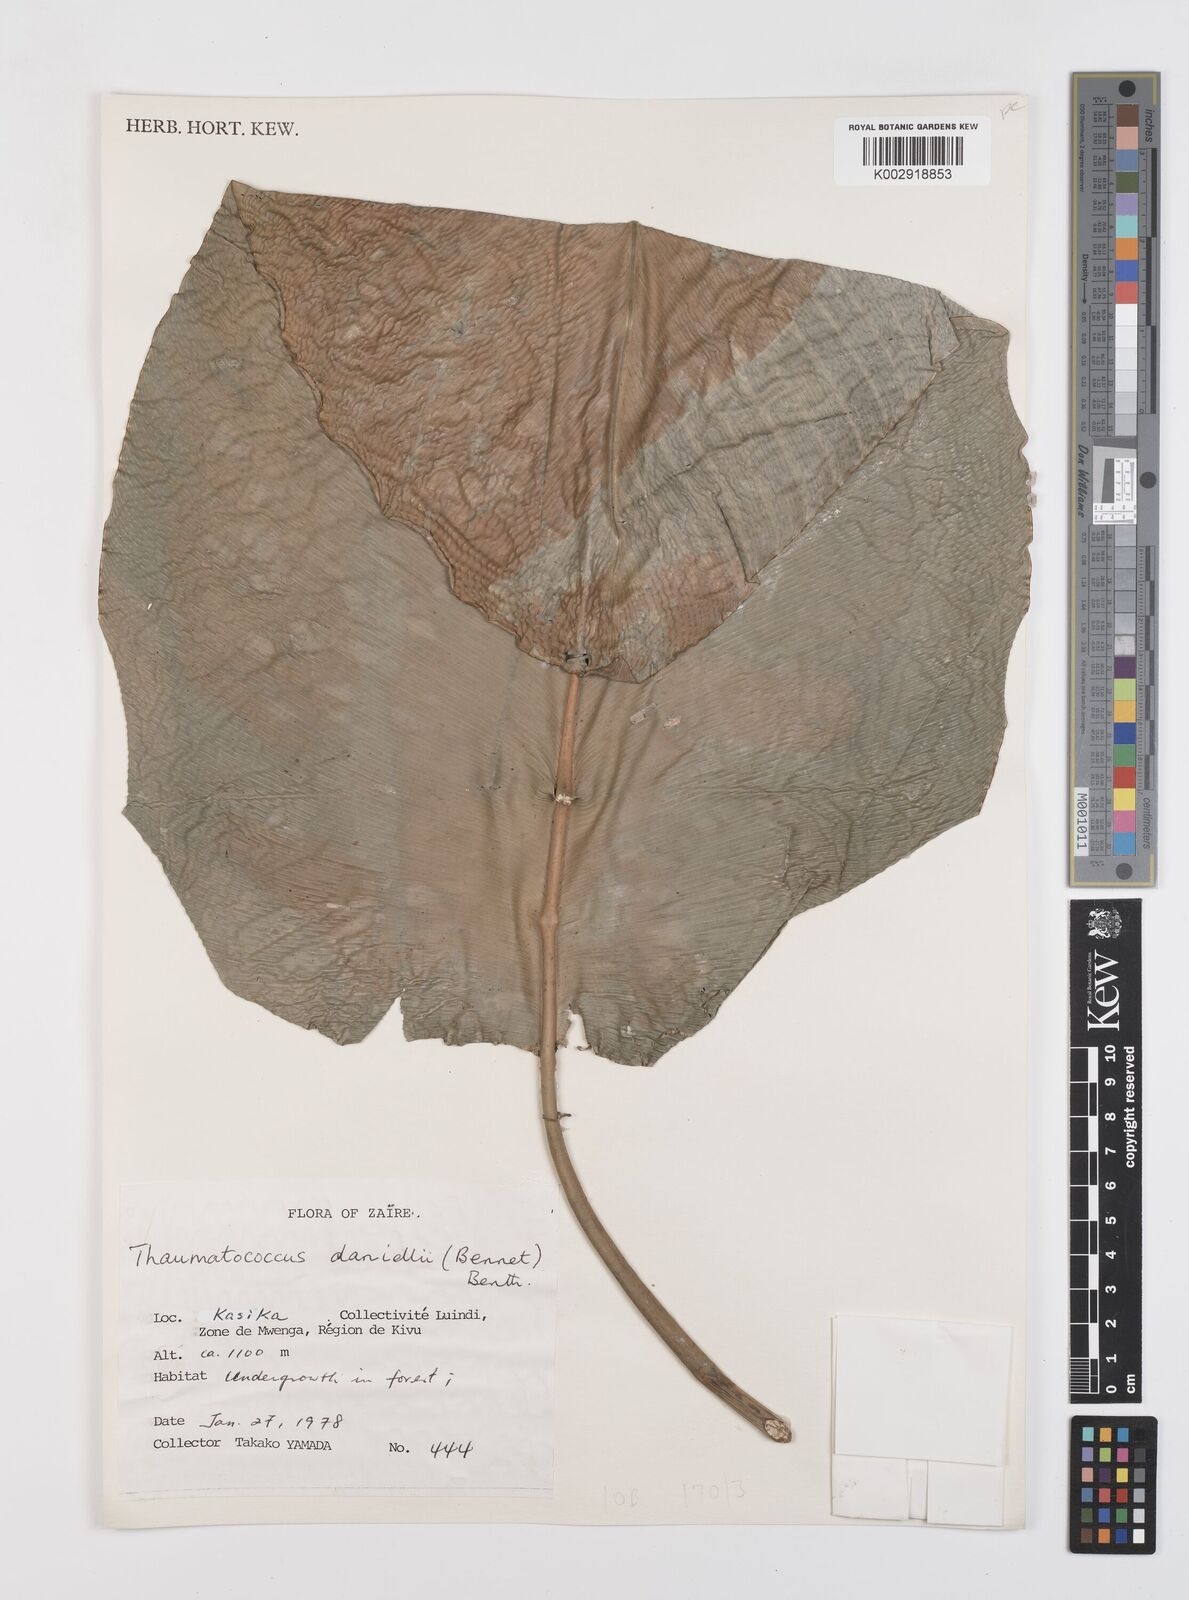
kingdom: Plantae
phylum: Tracheophyta
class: Liliopsida
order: Zingiberales
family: Marantaceae
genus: Thaumatococcus
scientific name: Thaumatococcus daniellii
